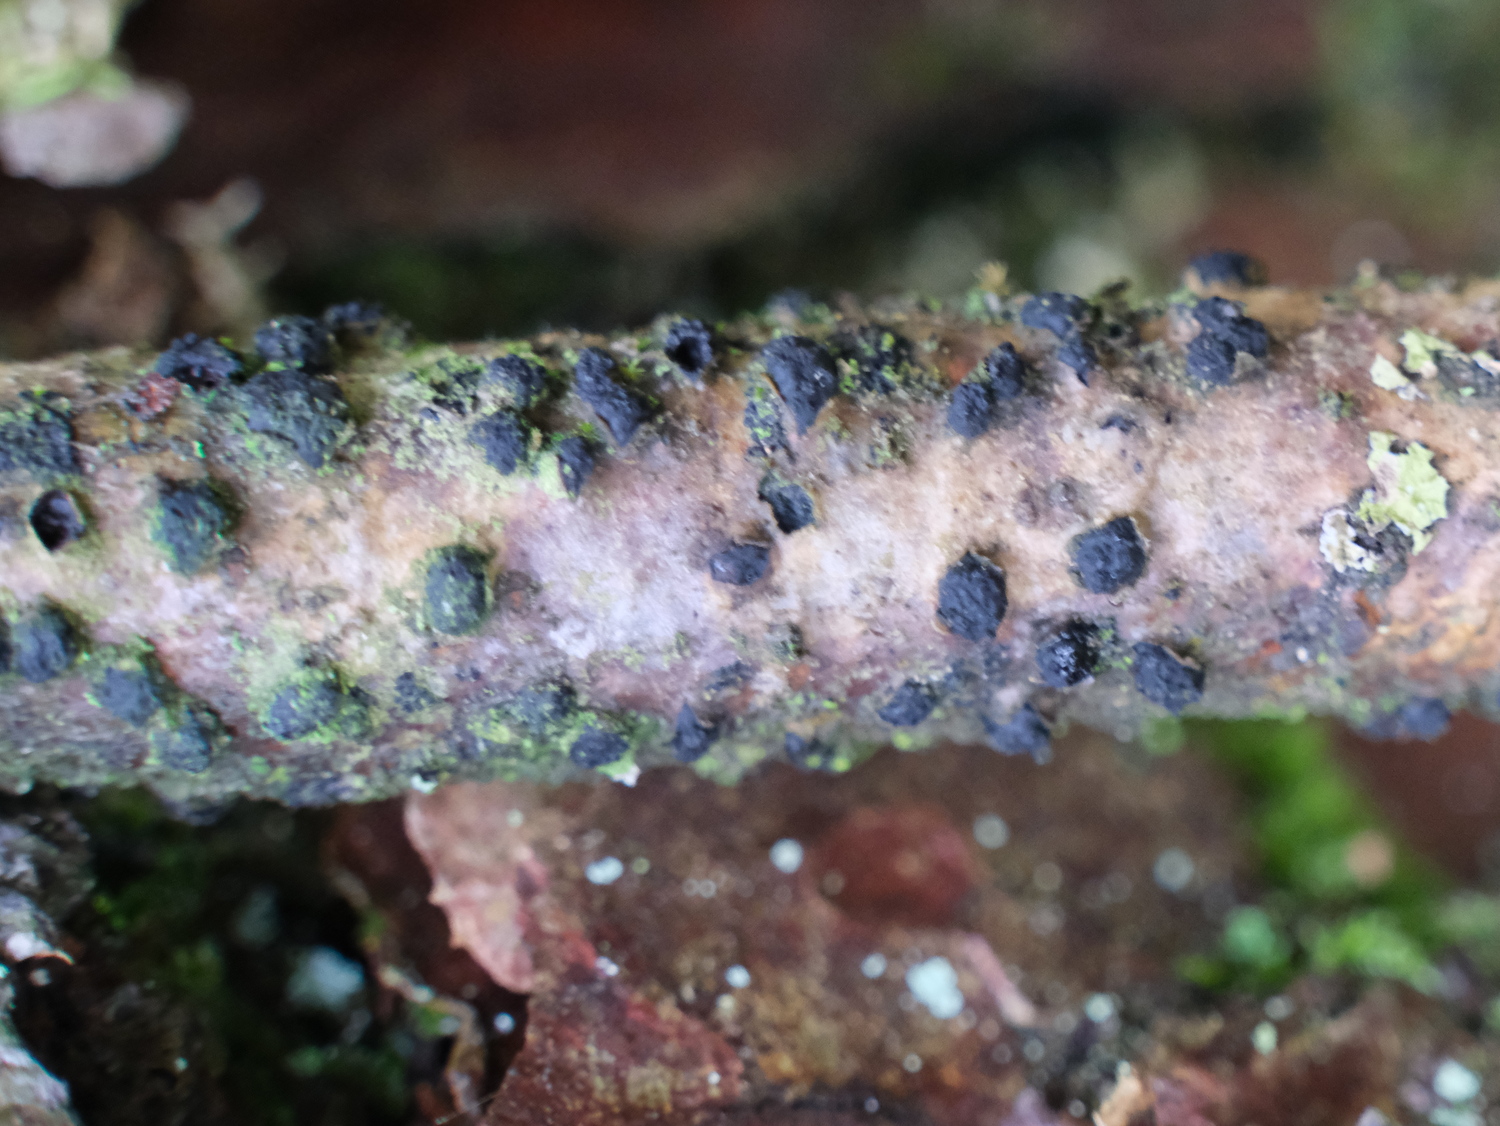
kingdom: Fungi
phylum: Ascomycota
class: Sordariomycetes
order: Xylariales
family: Diatrypaceae
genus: Diatrypella
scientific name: Diatrypella quercina
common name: ege-kulskorpe
